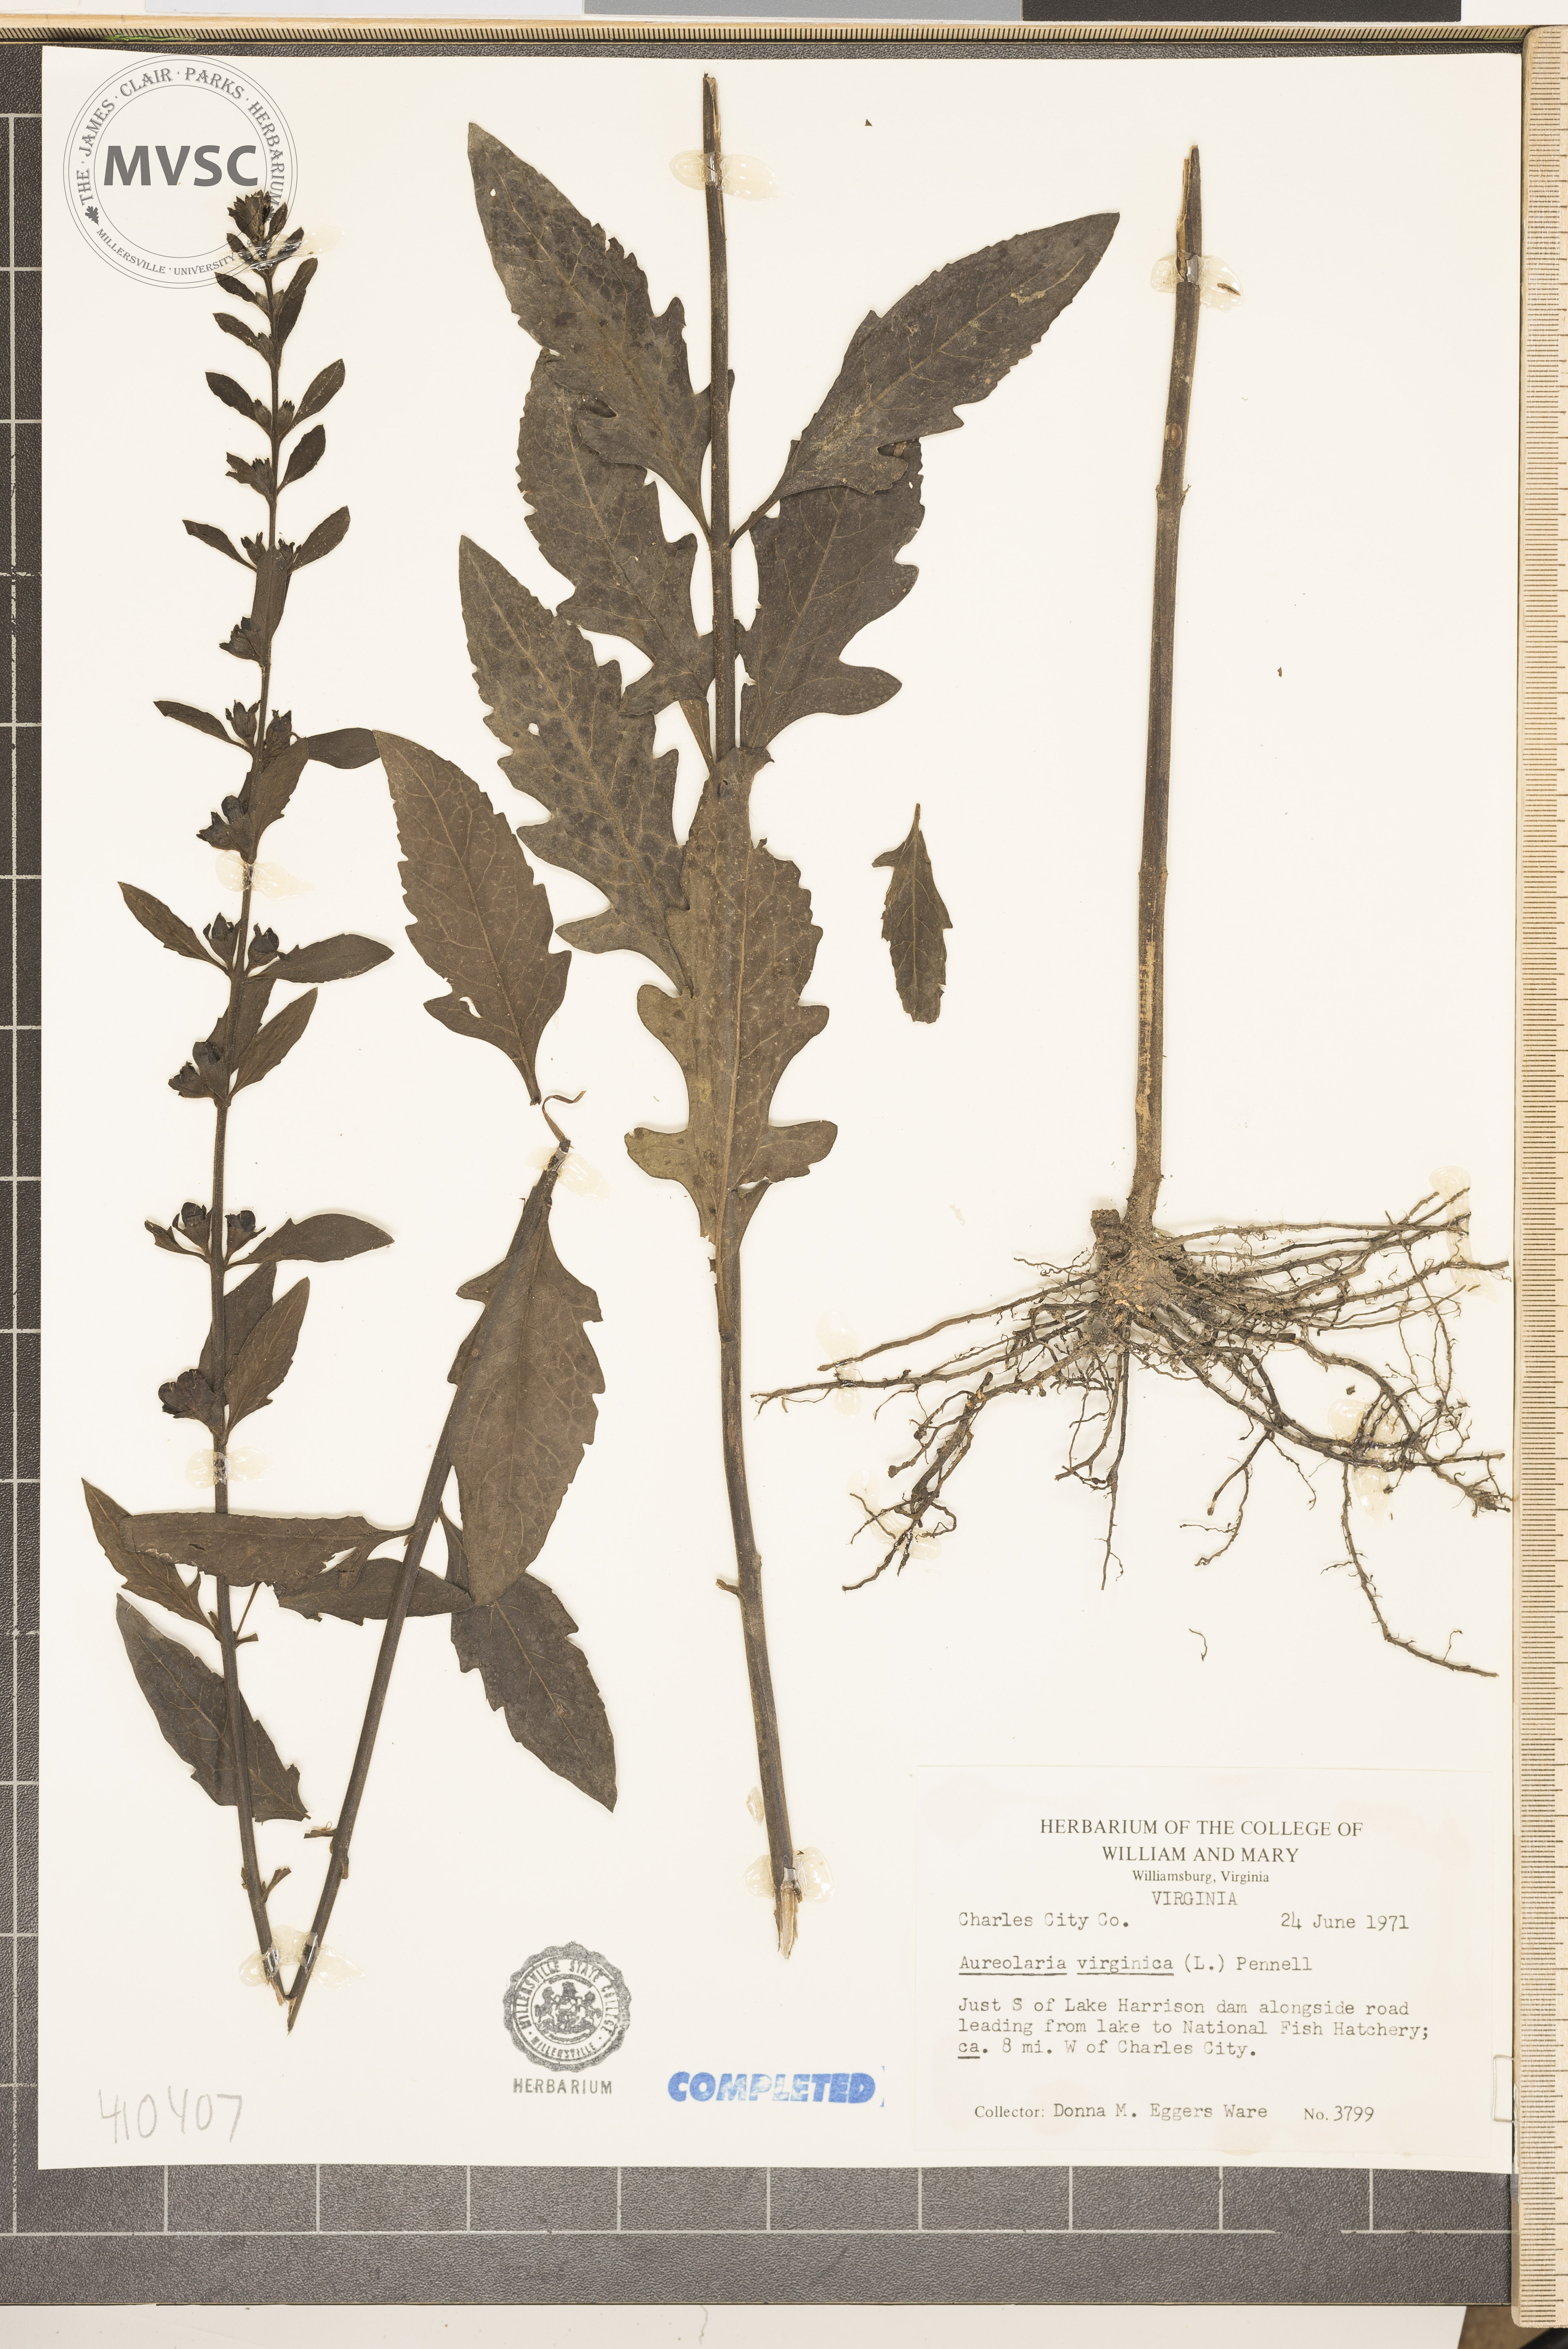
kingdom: Plantae
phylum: Tracheophyta
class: Magnoliopsida
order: Lamiales
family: Orobanchaceae
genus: Aureolaria
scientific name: Aureolaria virginica
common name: Downy false foxglove
